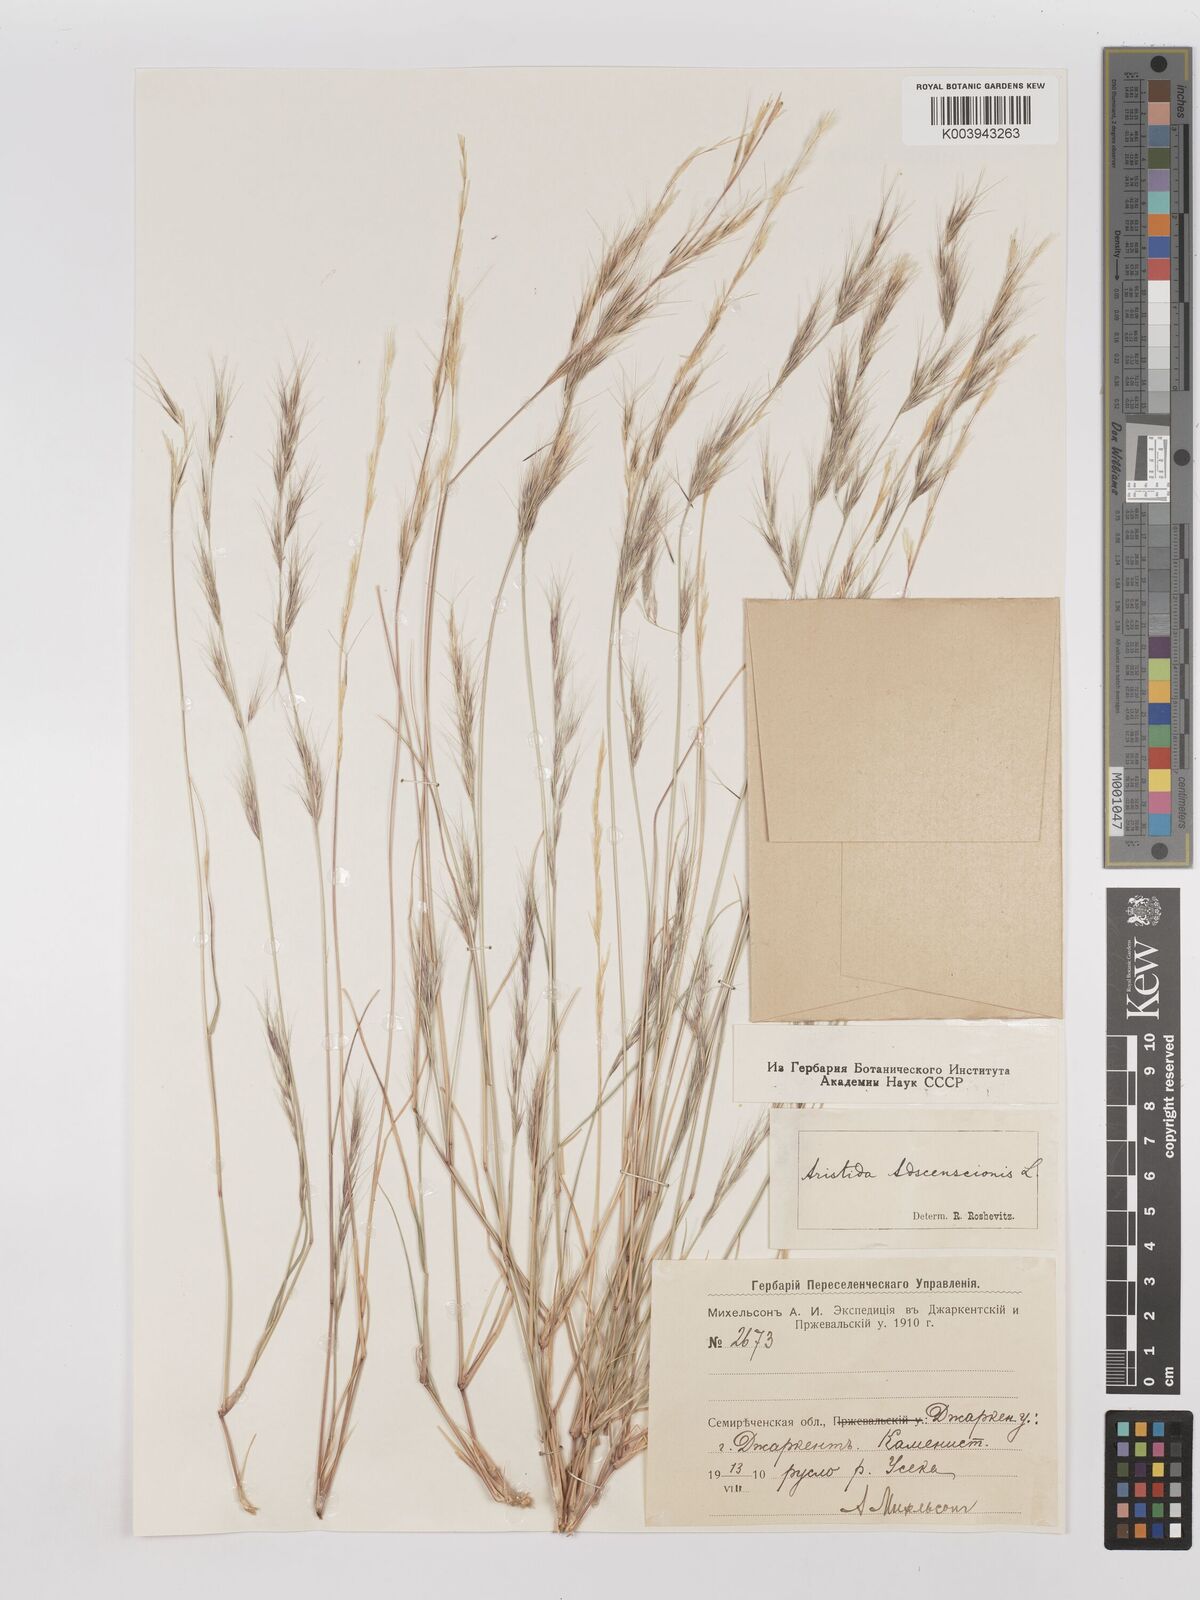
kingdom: Plantae
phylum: Tracheophyta
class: Liliopsida
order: Poales
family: Poaceae
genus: Aristida
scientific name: Aristida adscensionis
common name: Sixweeks threeawn
